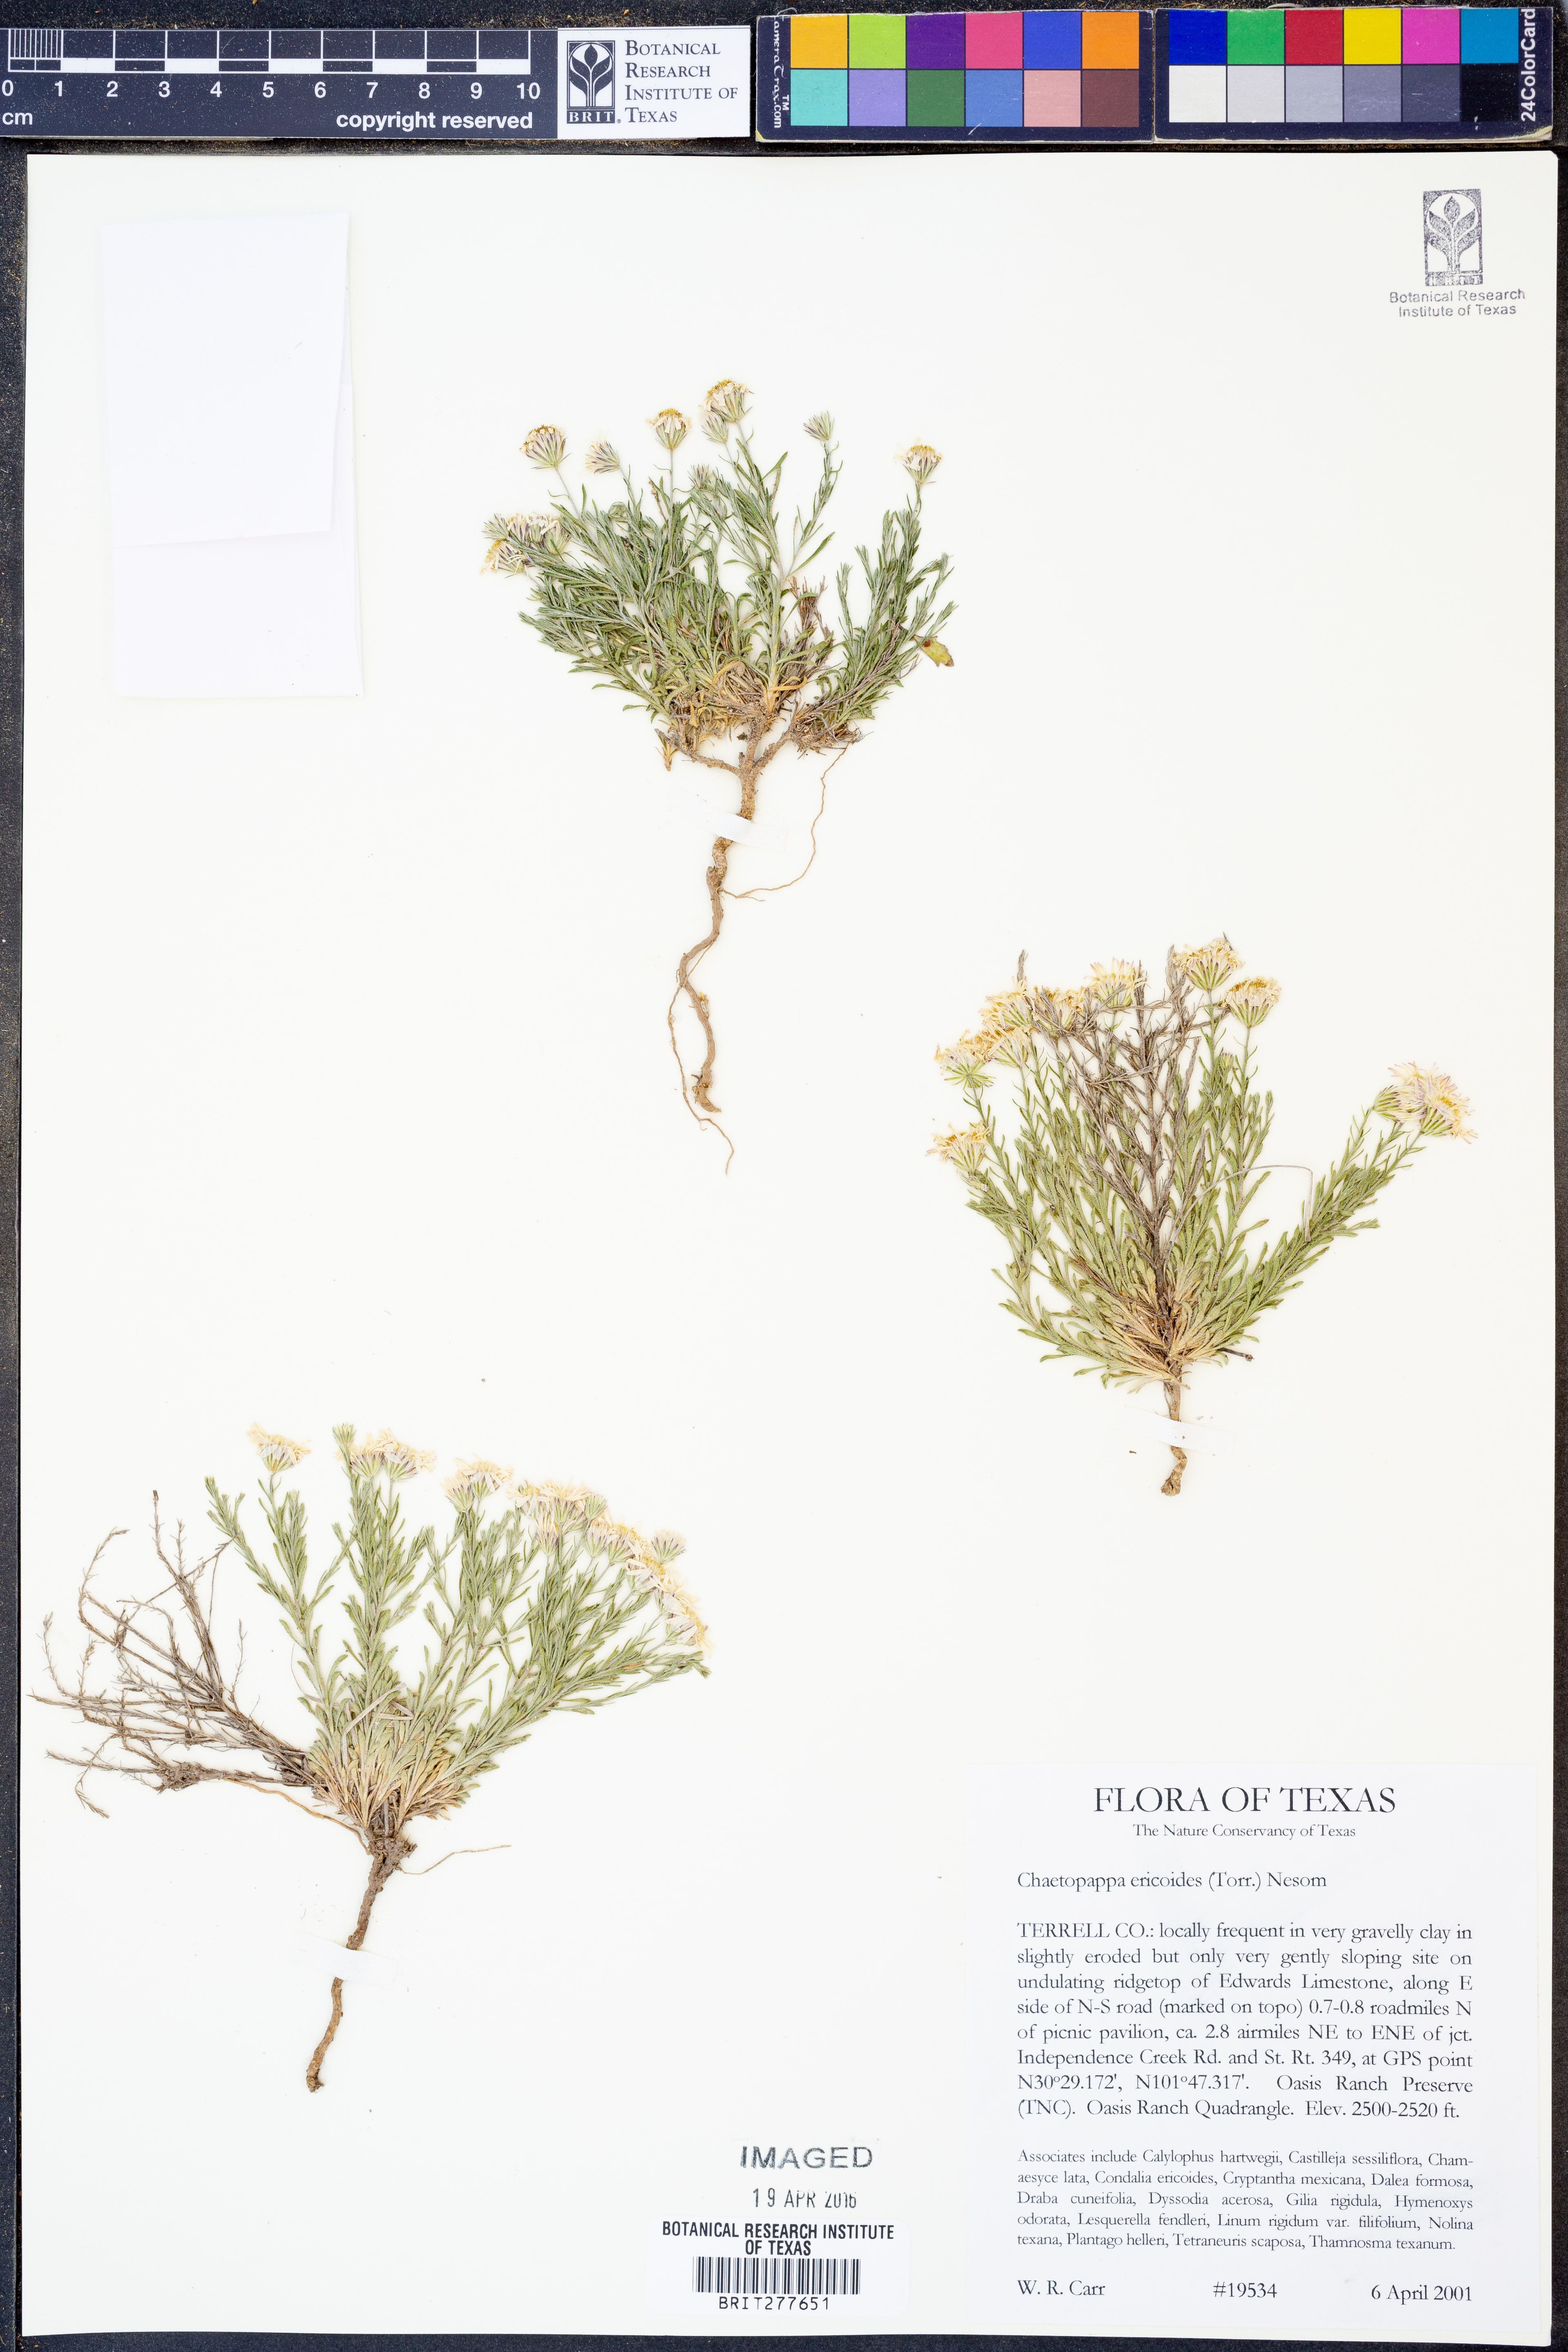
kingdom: Plantae
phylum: Tracheophyta
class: Magnoliopsida
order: Asterales
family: Asteraceae
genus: Chaetopappa
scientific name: Chaetopappa ericoides
